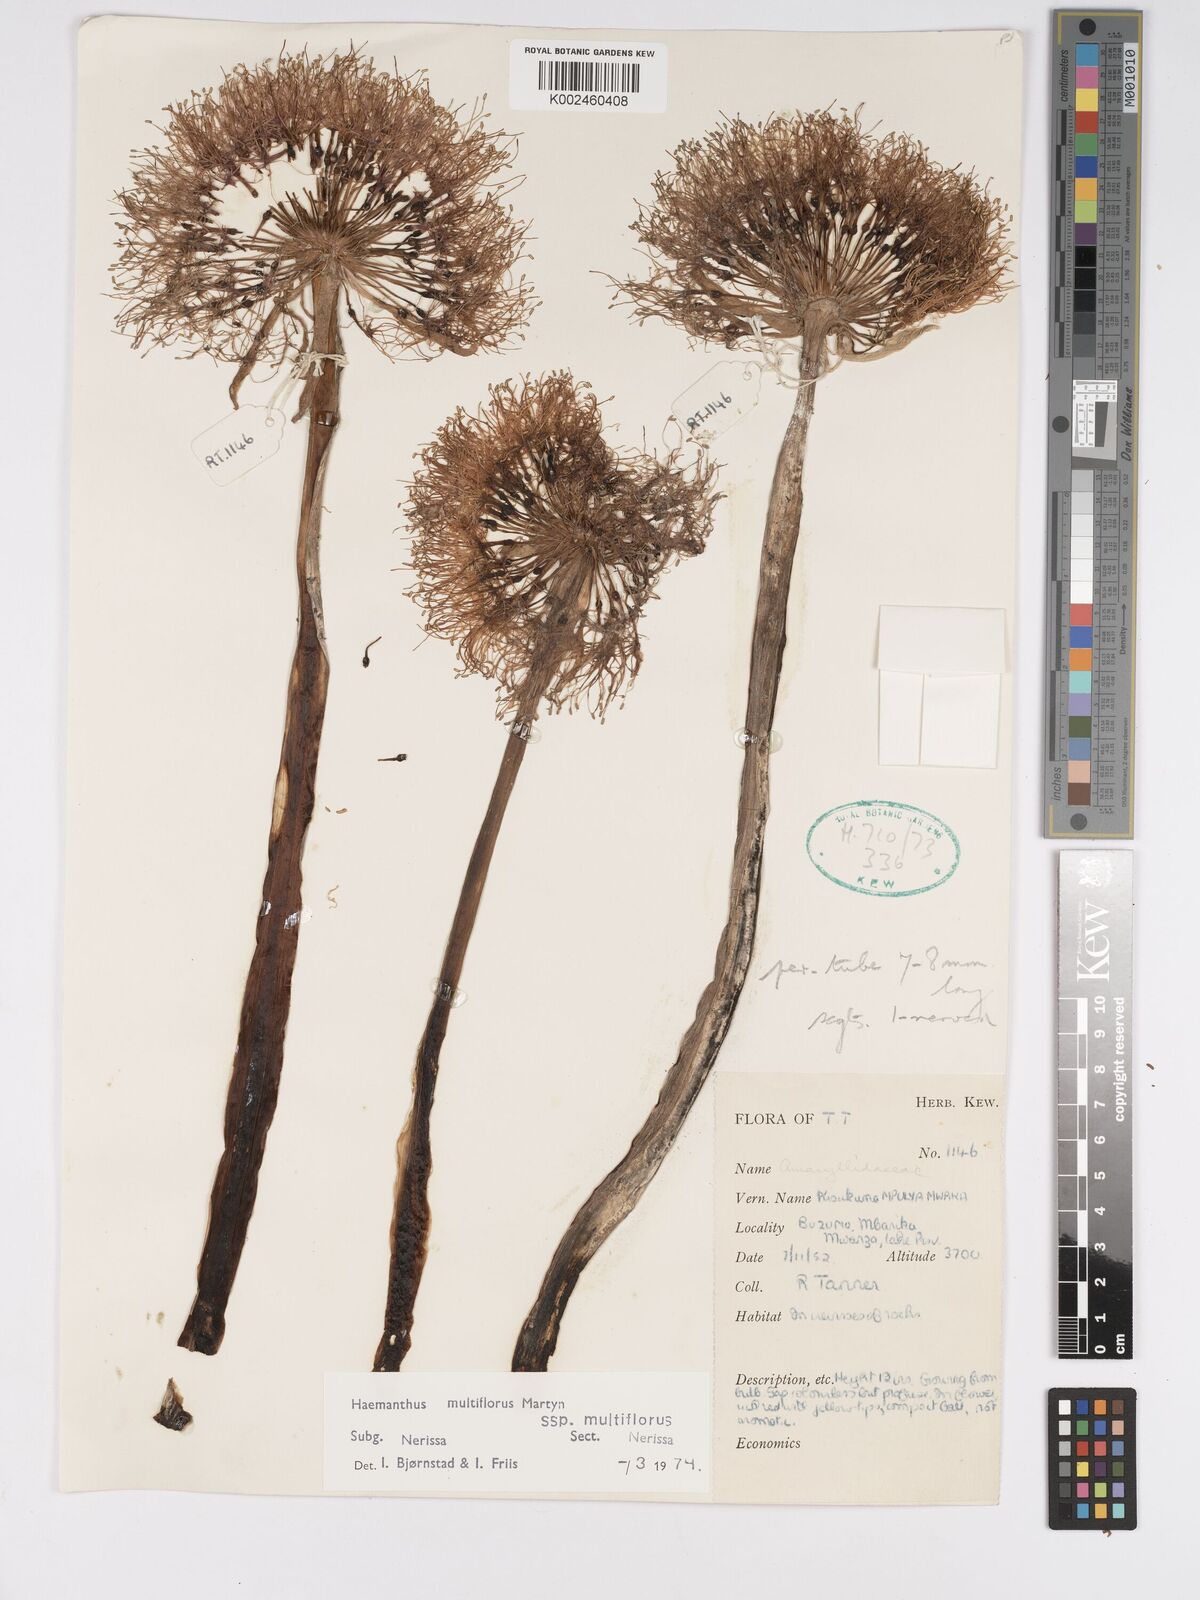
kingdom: Plantae
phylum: Tracheophyta
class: Liliopsida
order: Asparagales
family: Amaryllidaceae
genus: Scadoxus
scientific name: Scadoxus multiflorus
